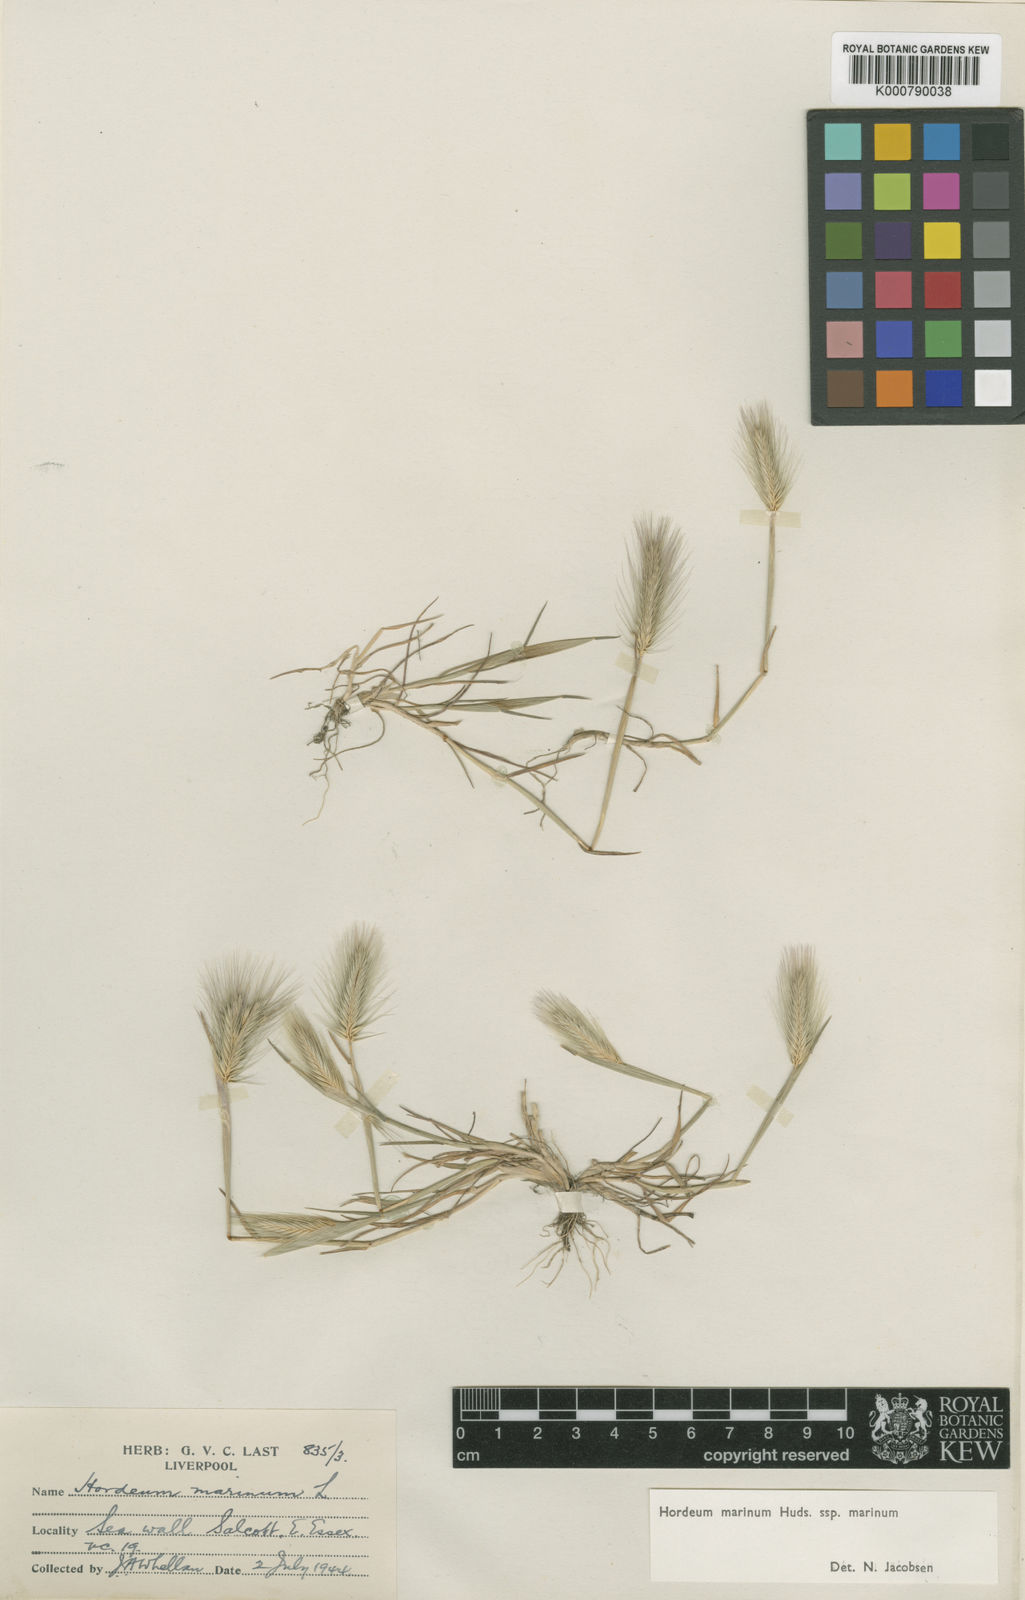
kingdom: Plantae
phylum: Tracheophyta
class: Liliopsida
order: Poales
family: Poaceae
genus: Hordeum
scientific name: Hordeum marinum
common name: Sea barley
